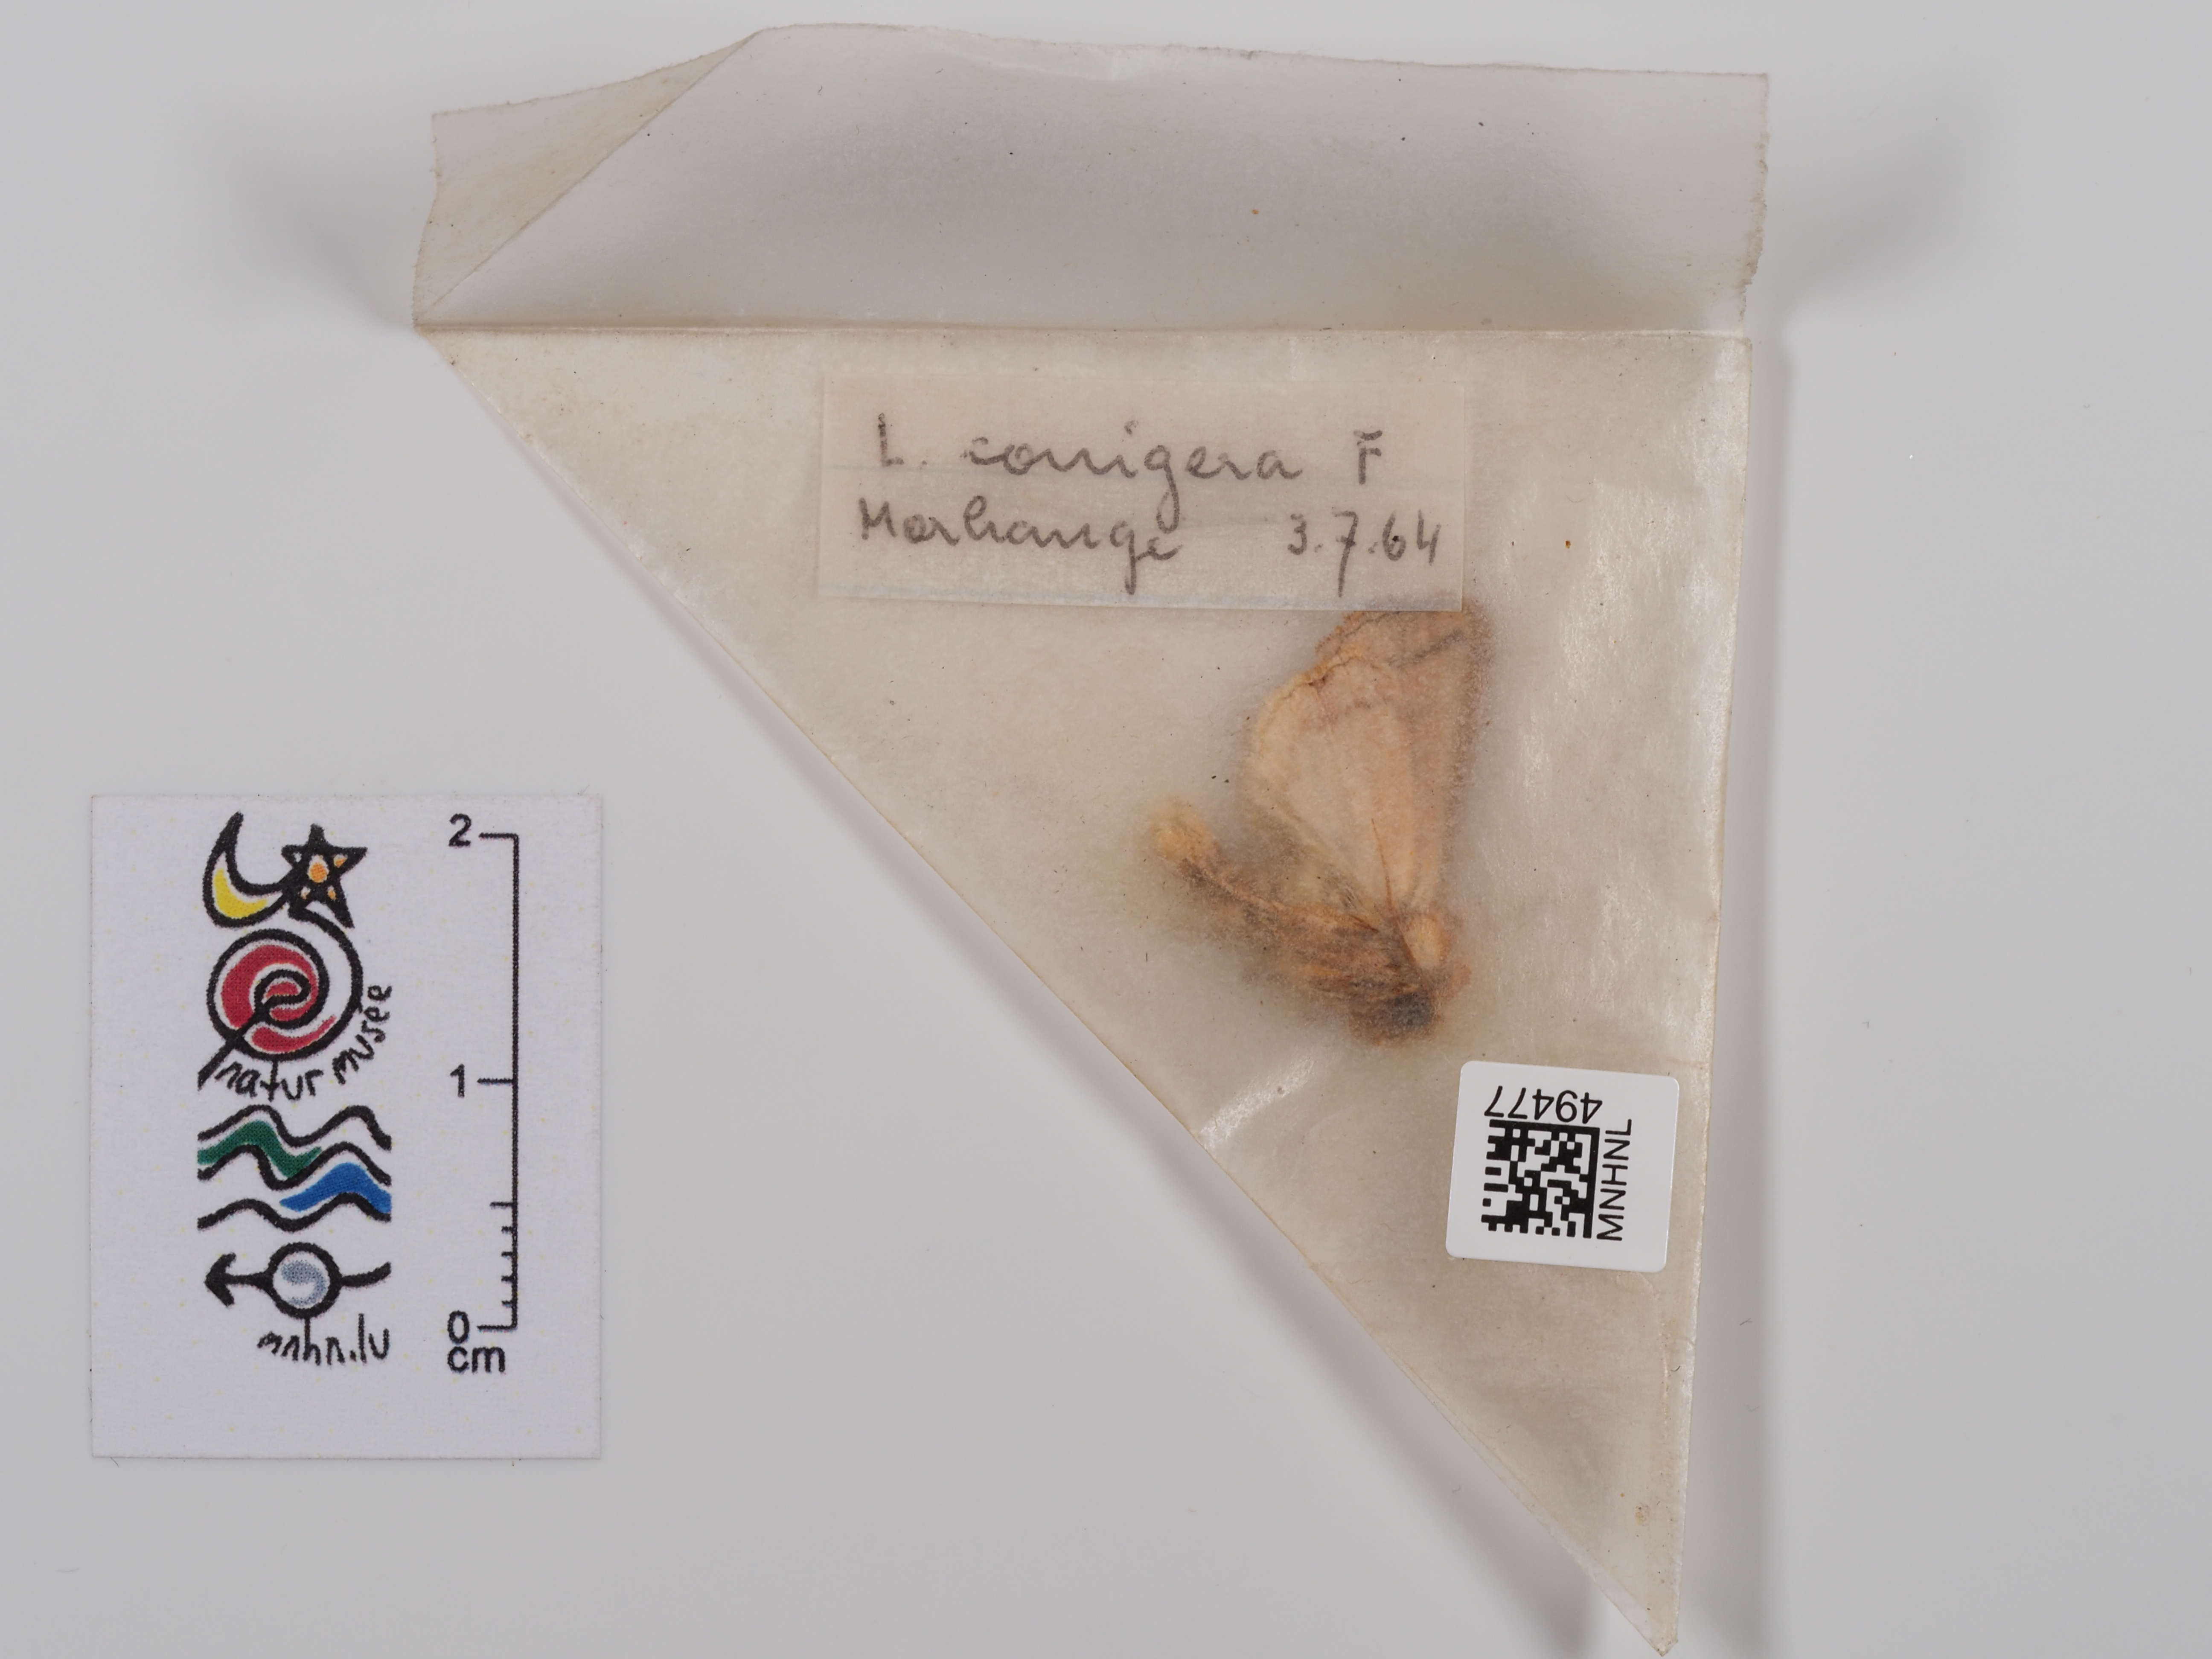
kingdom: Animalia
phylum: Arthropoda
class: Insecta
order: Lepidoptera
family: Noctuidae
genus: Mythimna
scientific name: Mythimna conigera
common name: Brown-line bright-eye
